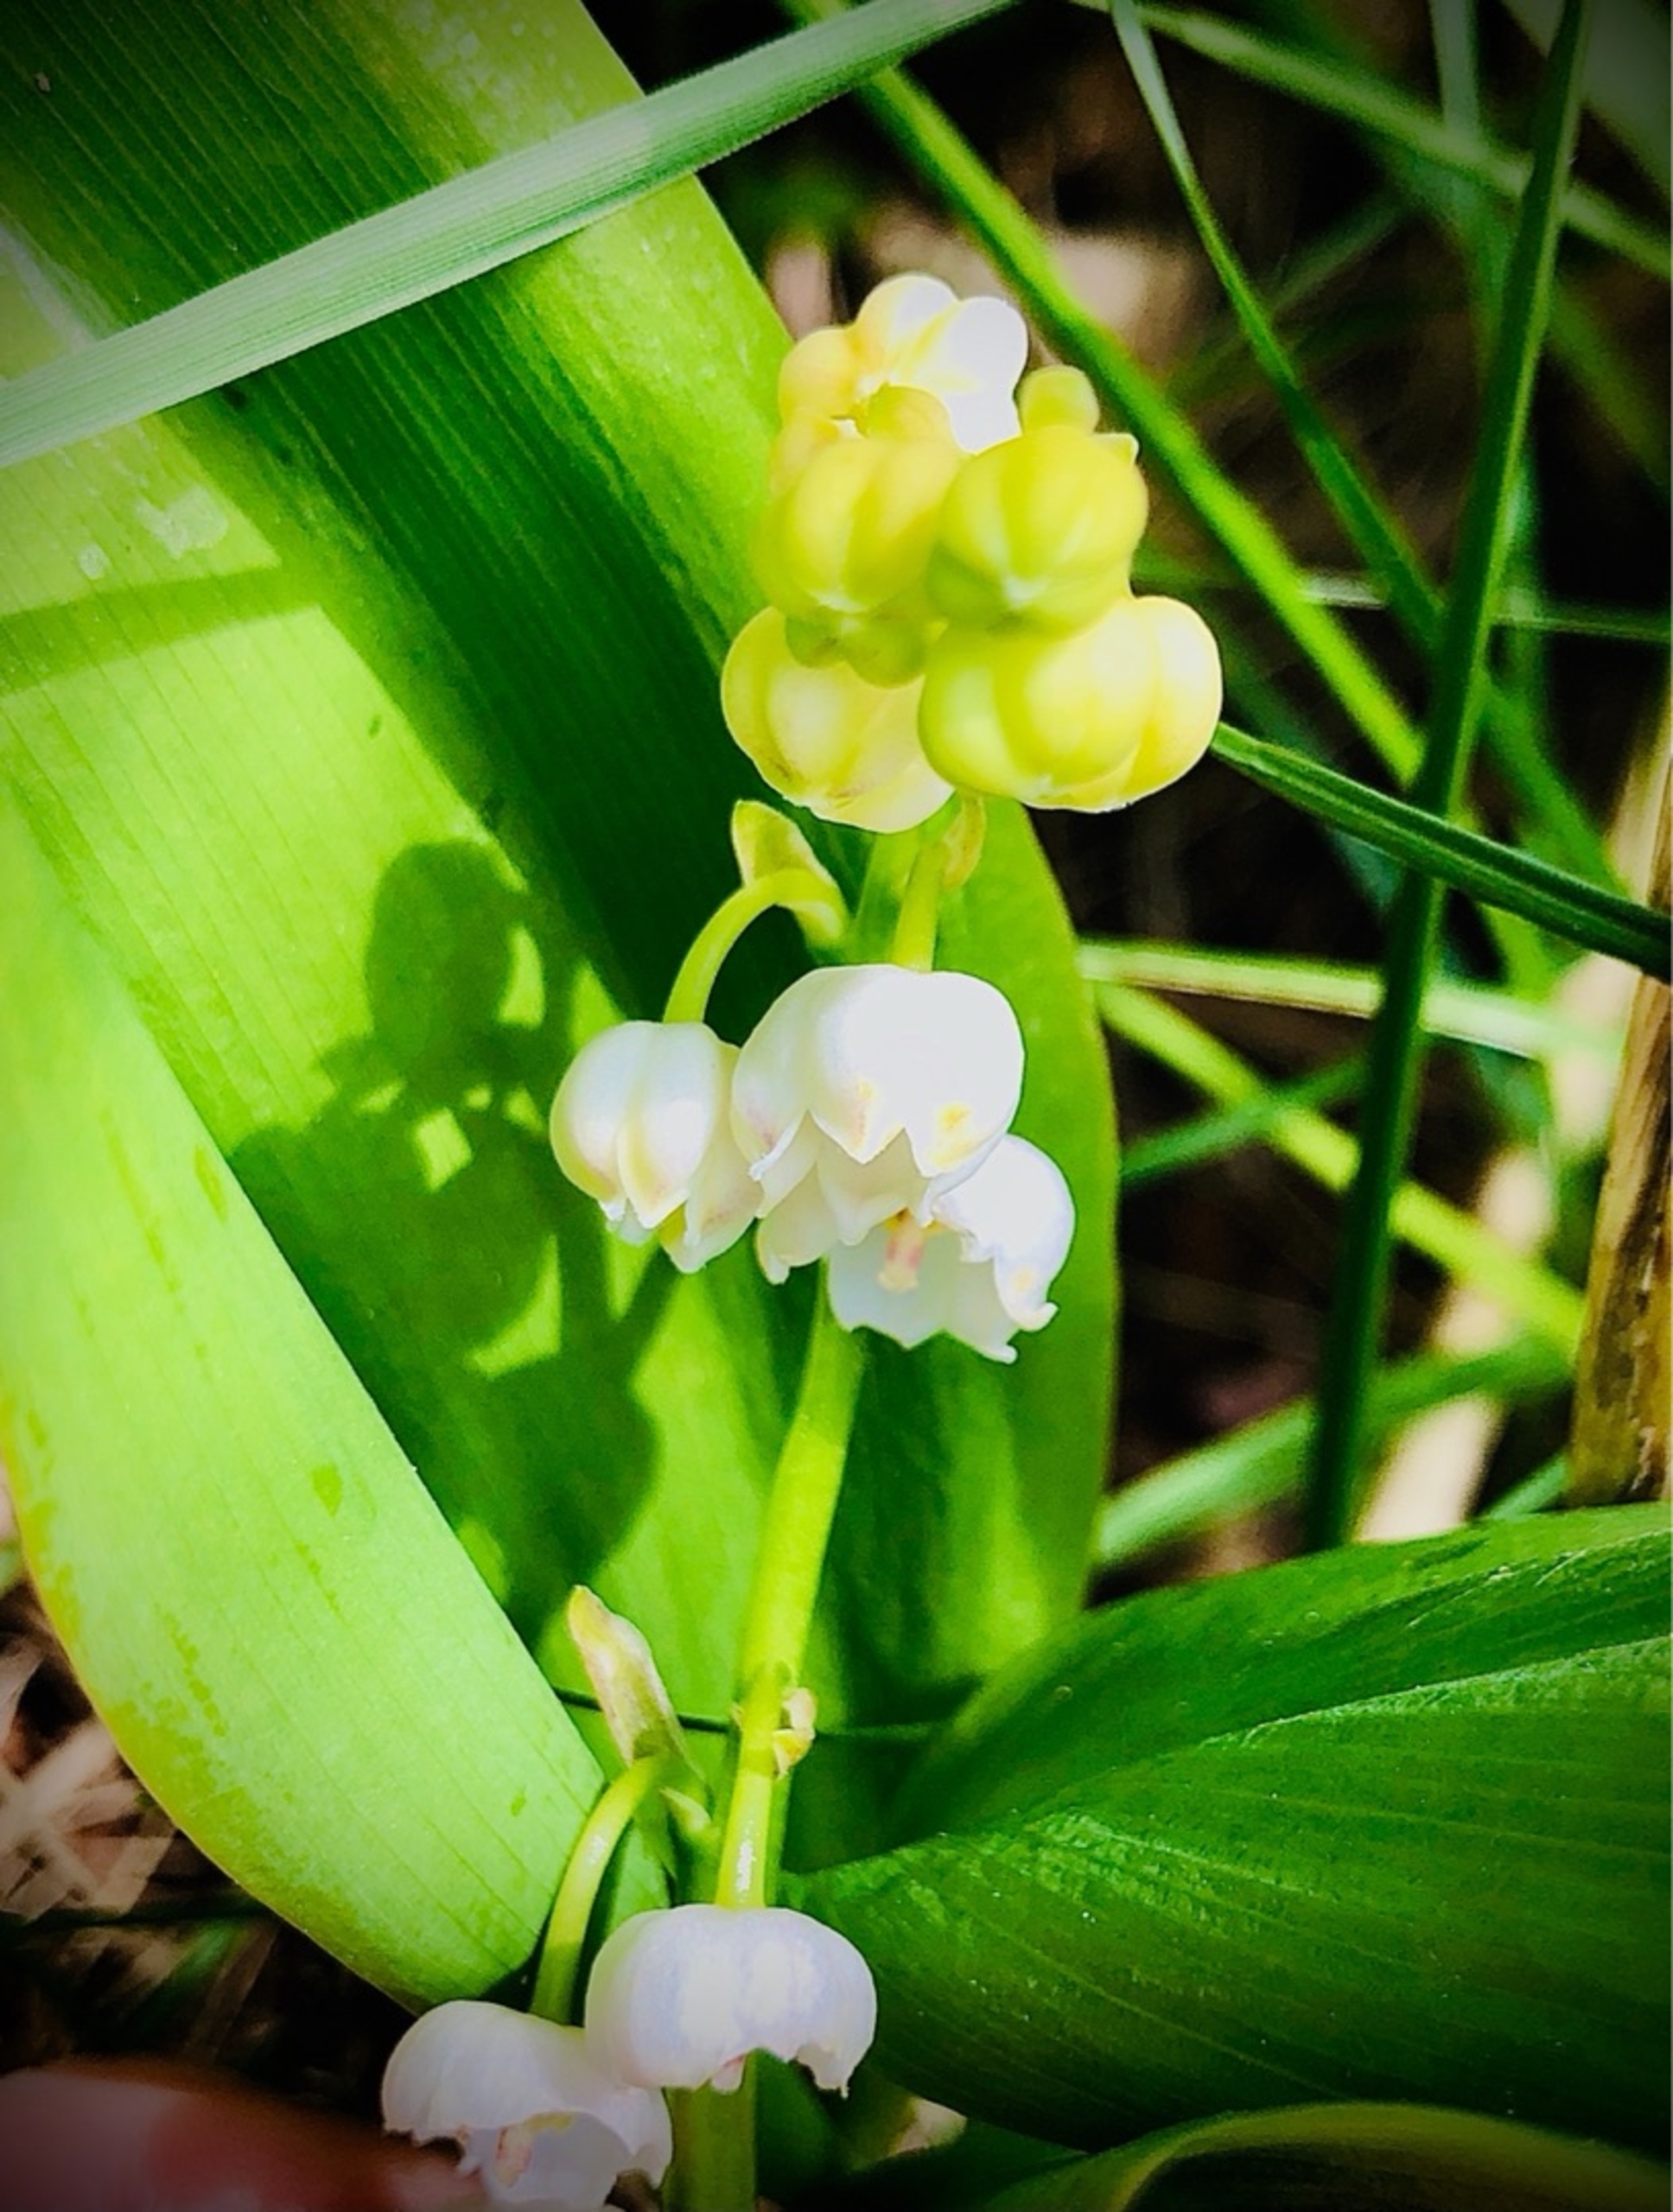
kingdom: Plantae
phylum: Tracheophyta
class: Liliopsida
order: Asparagales
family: Asparagaceae
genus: Convallaria
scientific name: Convallaria majalis
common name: Liljekonval
